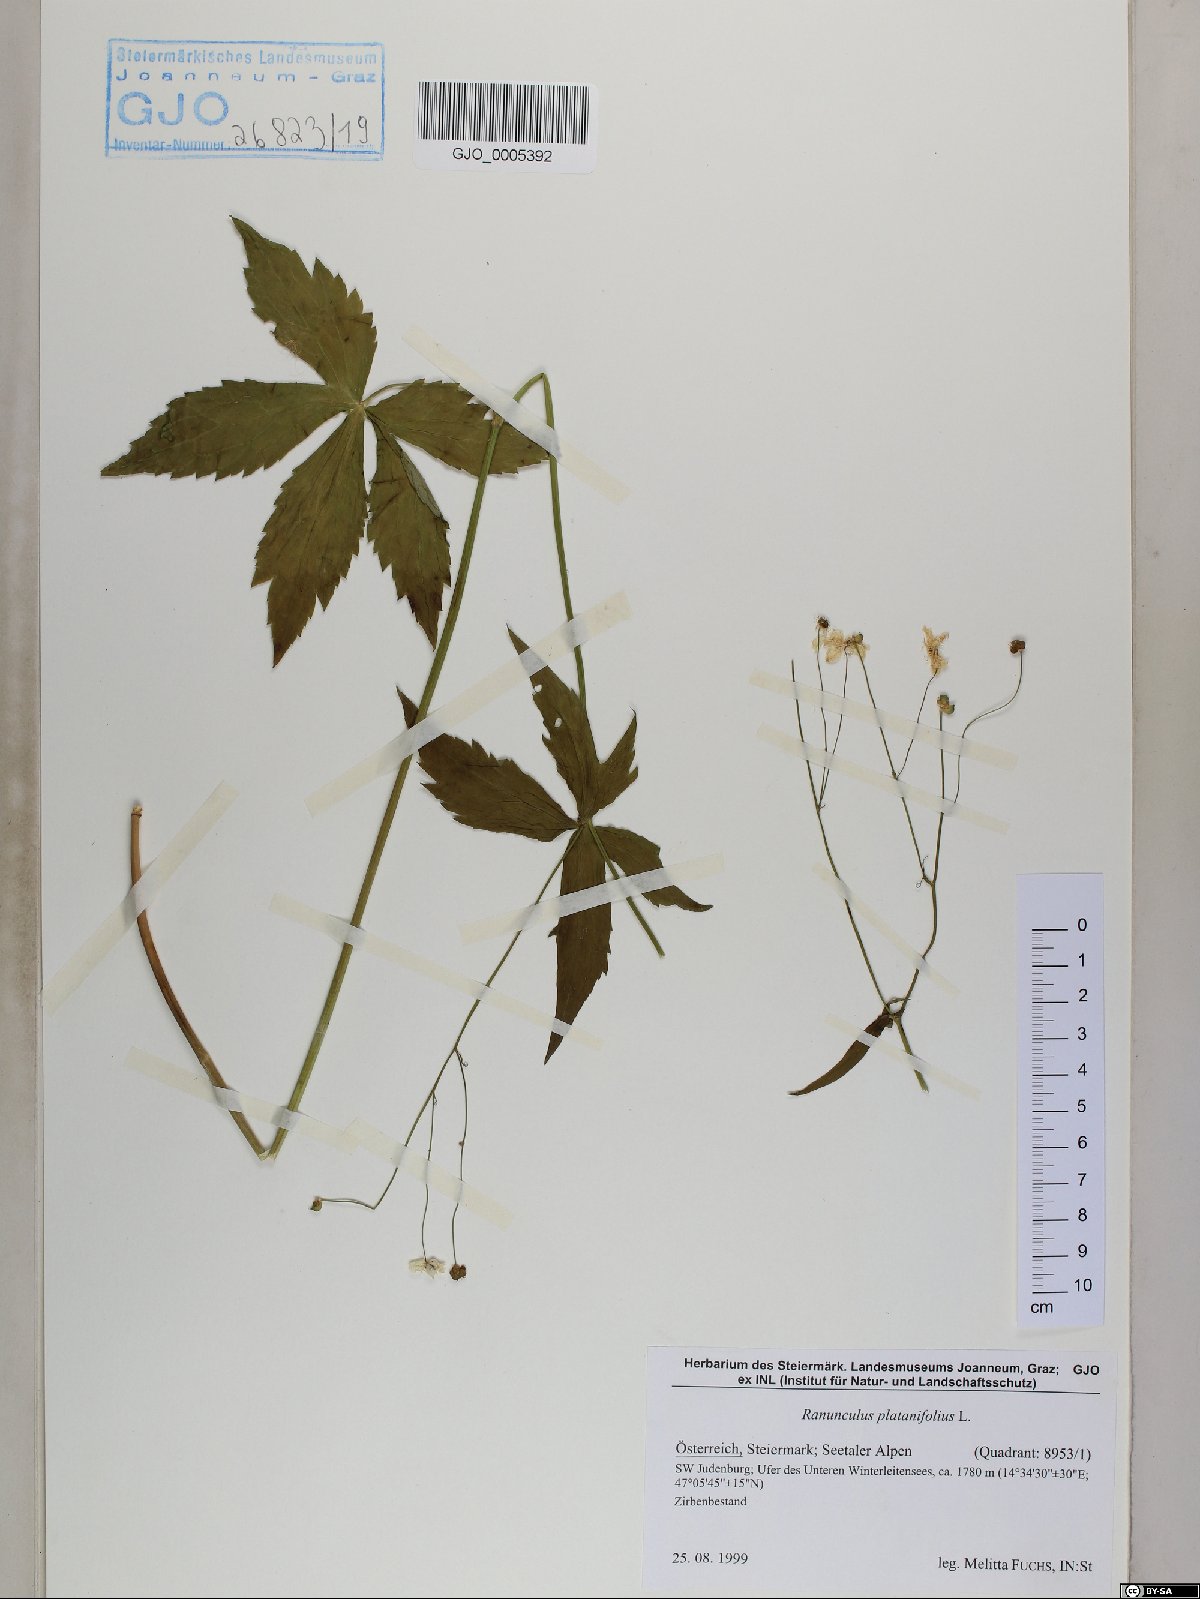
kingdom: Plantae
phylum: Tracheophyta
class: Magnoliopsida
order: Ranunculales
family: Ranunculaceae
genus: Ranunculus
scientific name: Ranunculus platanifolius
